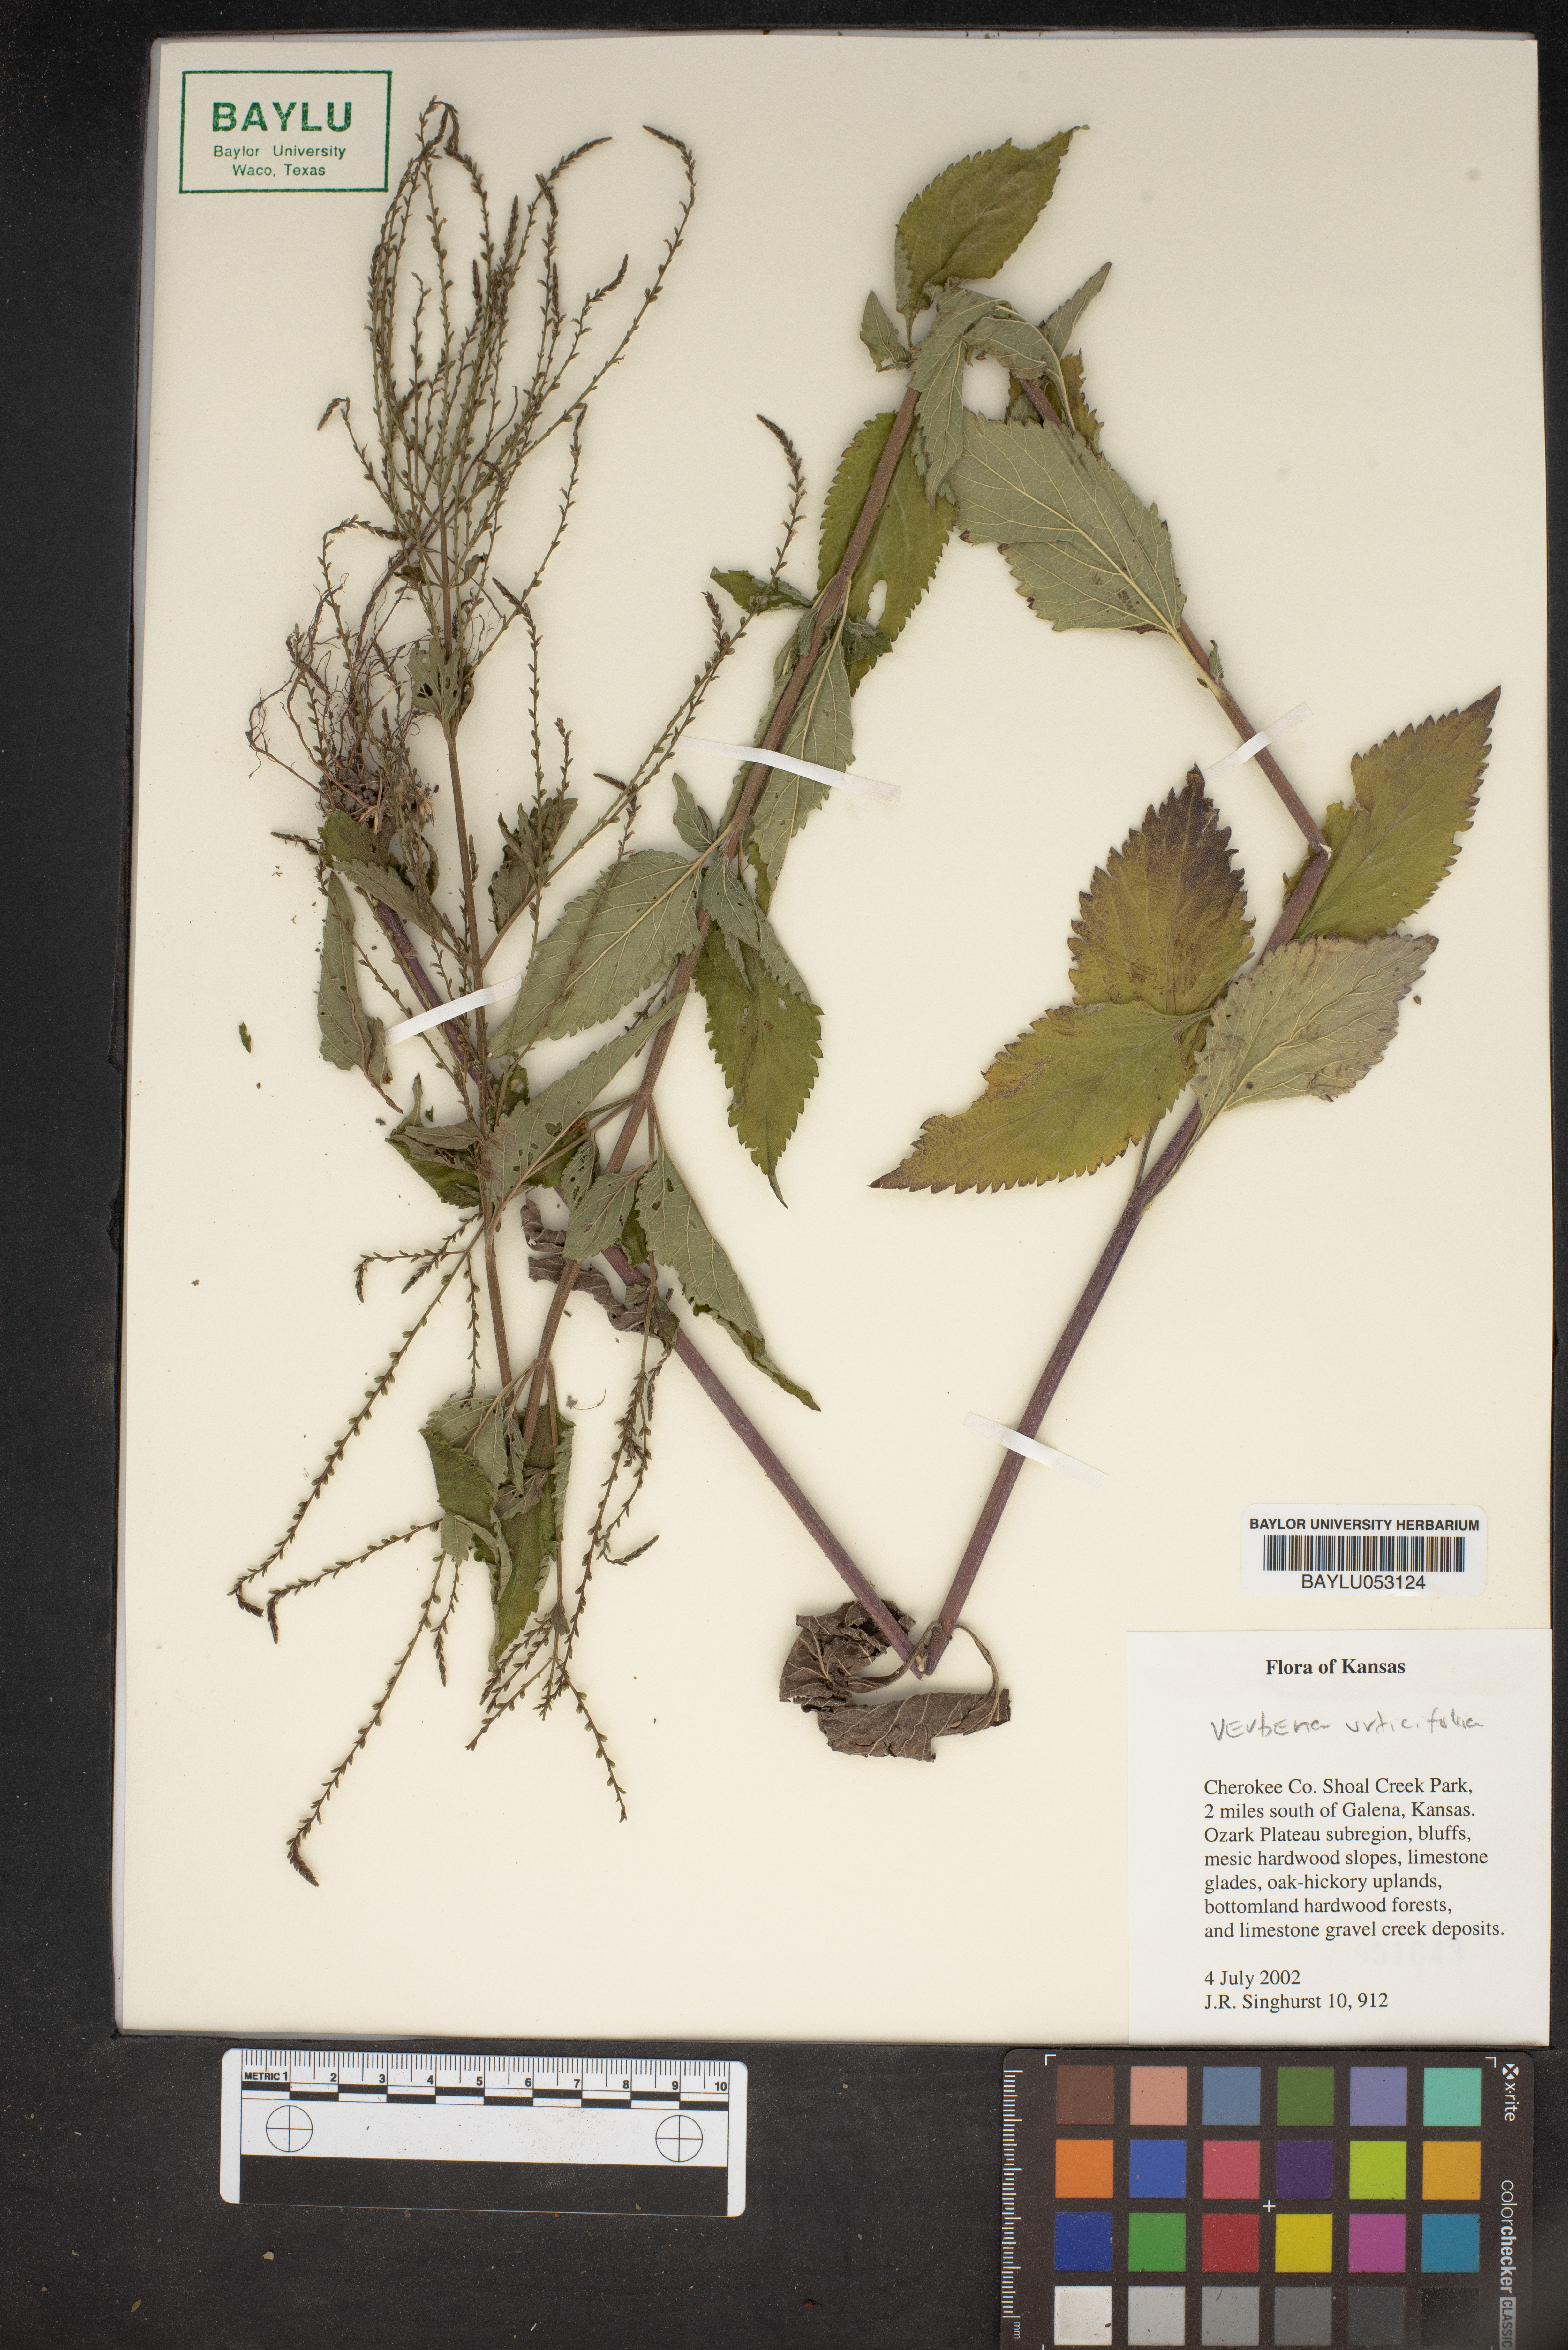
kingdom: Plantae
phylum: Tracheophyta
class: Magnoliopsida
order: Lamiales
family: Verbenaceae
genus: Verbena
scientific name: Verbena urticifolia
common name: Nettle-leaved vervain
